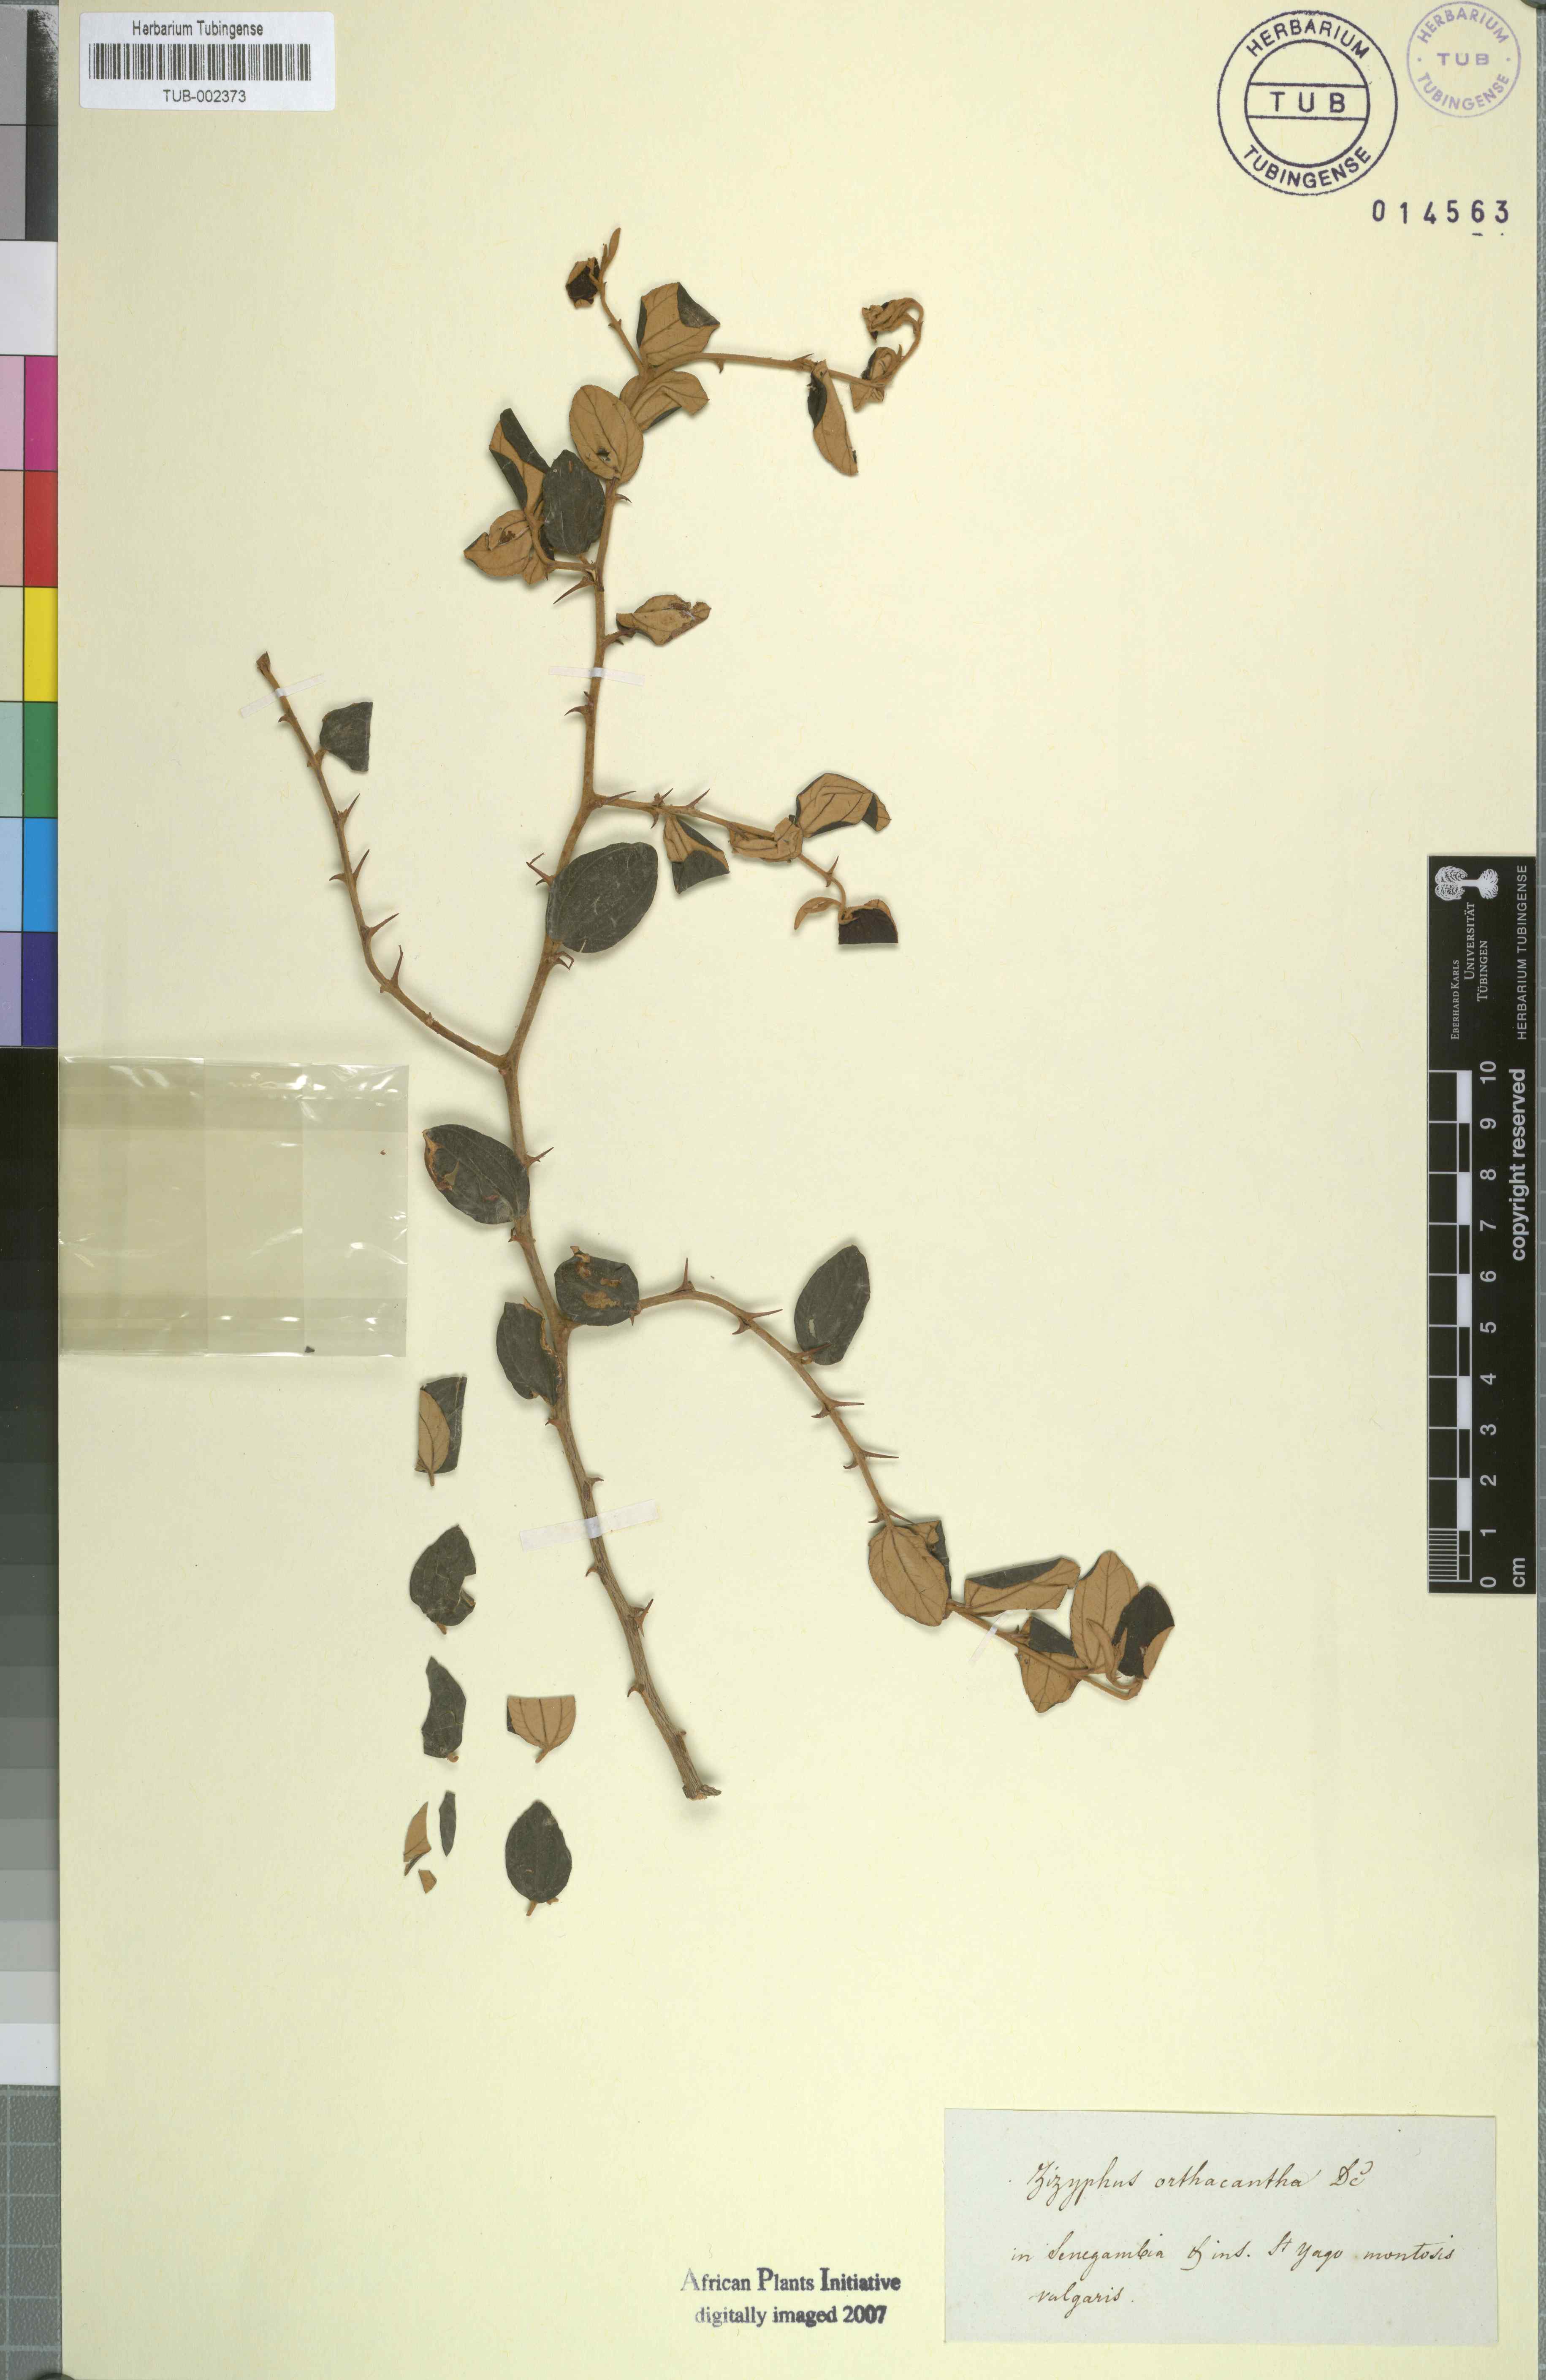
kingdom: Plantae
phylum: Tracheophyta
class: Magnoliopsida
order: Rosales
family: Rhamnaceae
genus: Ziziphus
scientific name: Ziziphus jujuba
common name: Jujube red date
